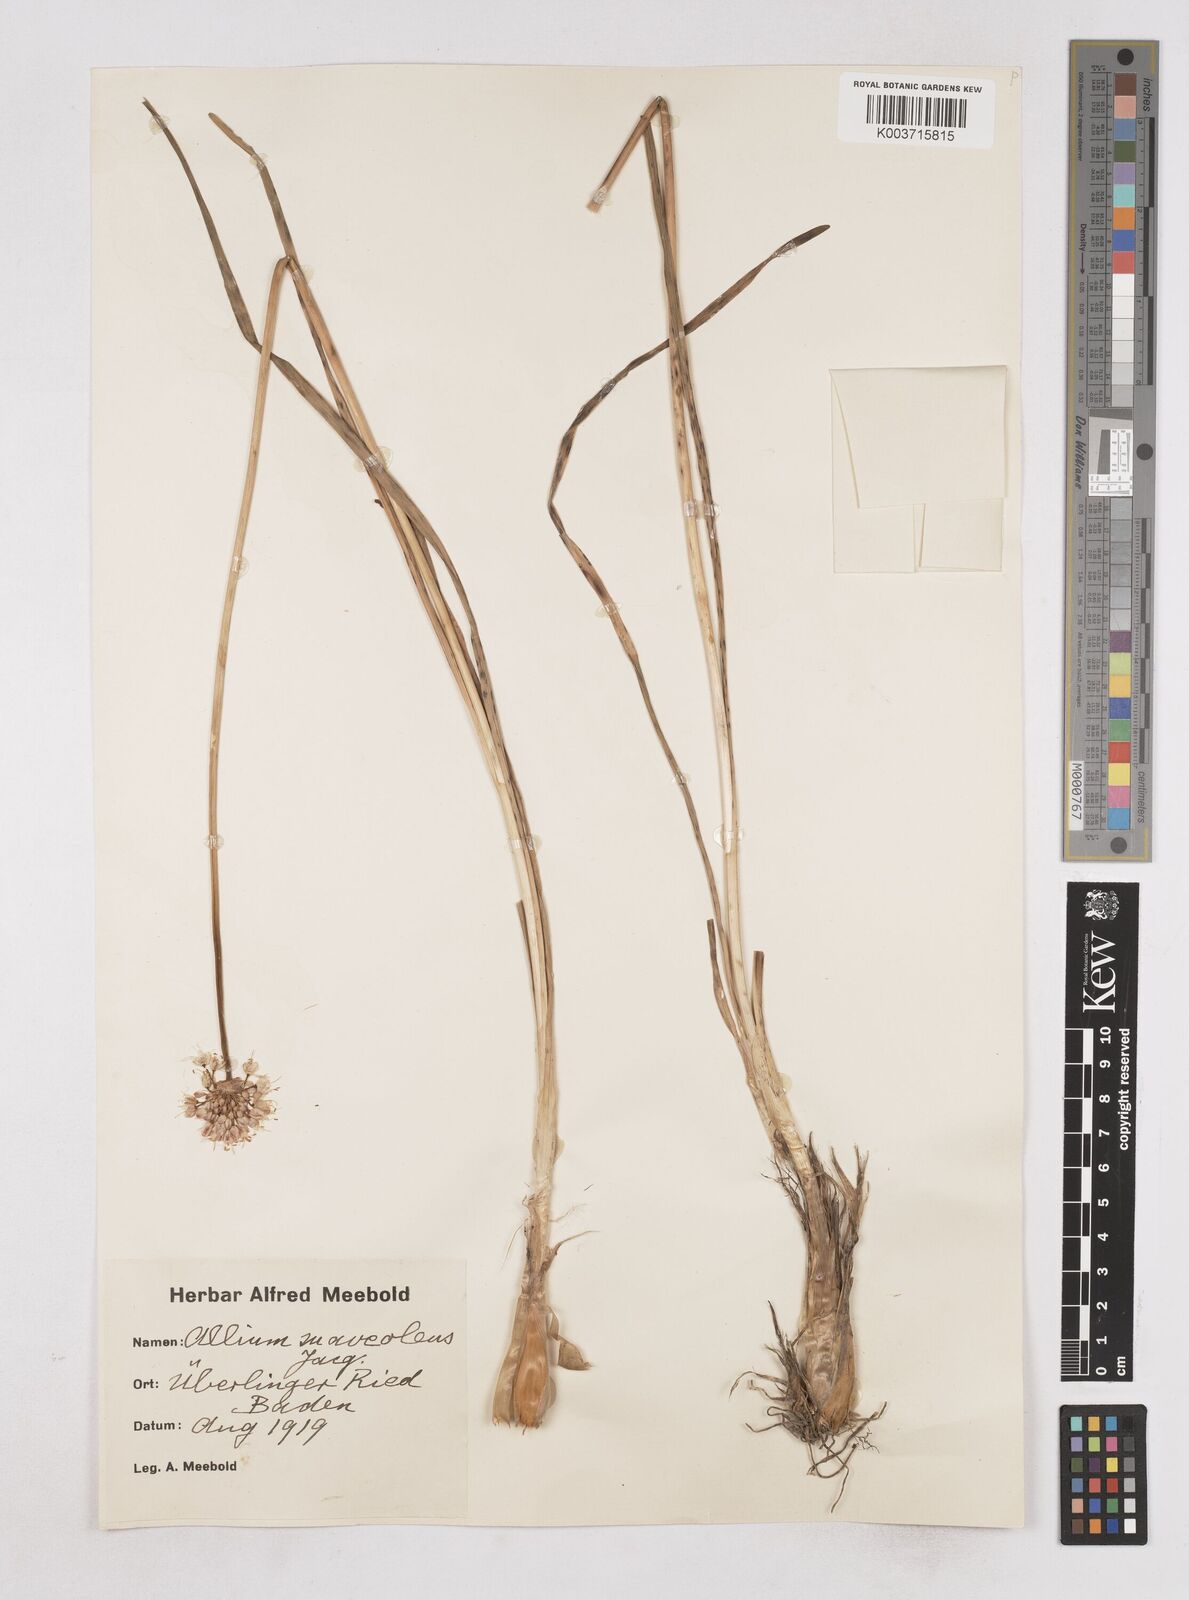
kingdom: Plantae
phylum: Tracheophyta
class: Liliopsida
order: Asparagales
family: Amaryllidaceae
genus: Allium
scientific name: Allium suaveolens
